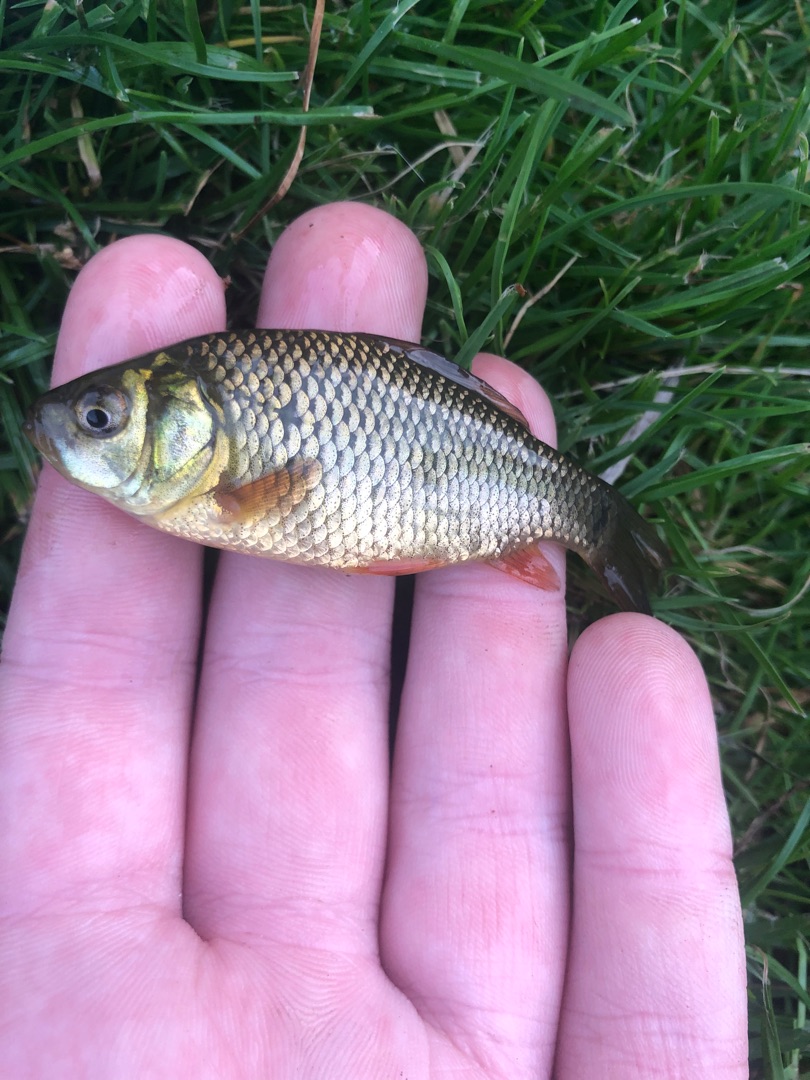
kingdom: Animalia
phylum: Chordata
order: Cypriniformes
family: Cyprinidae
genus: Carassius
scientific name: Carassius carassius
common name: Karusse
